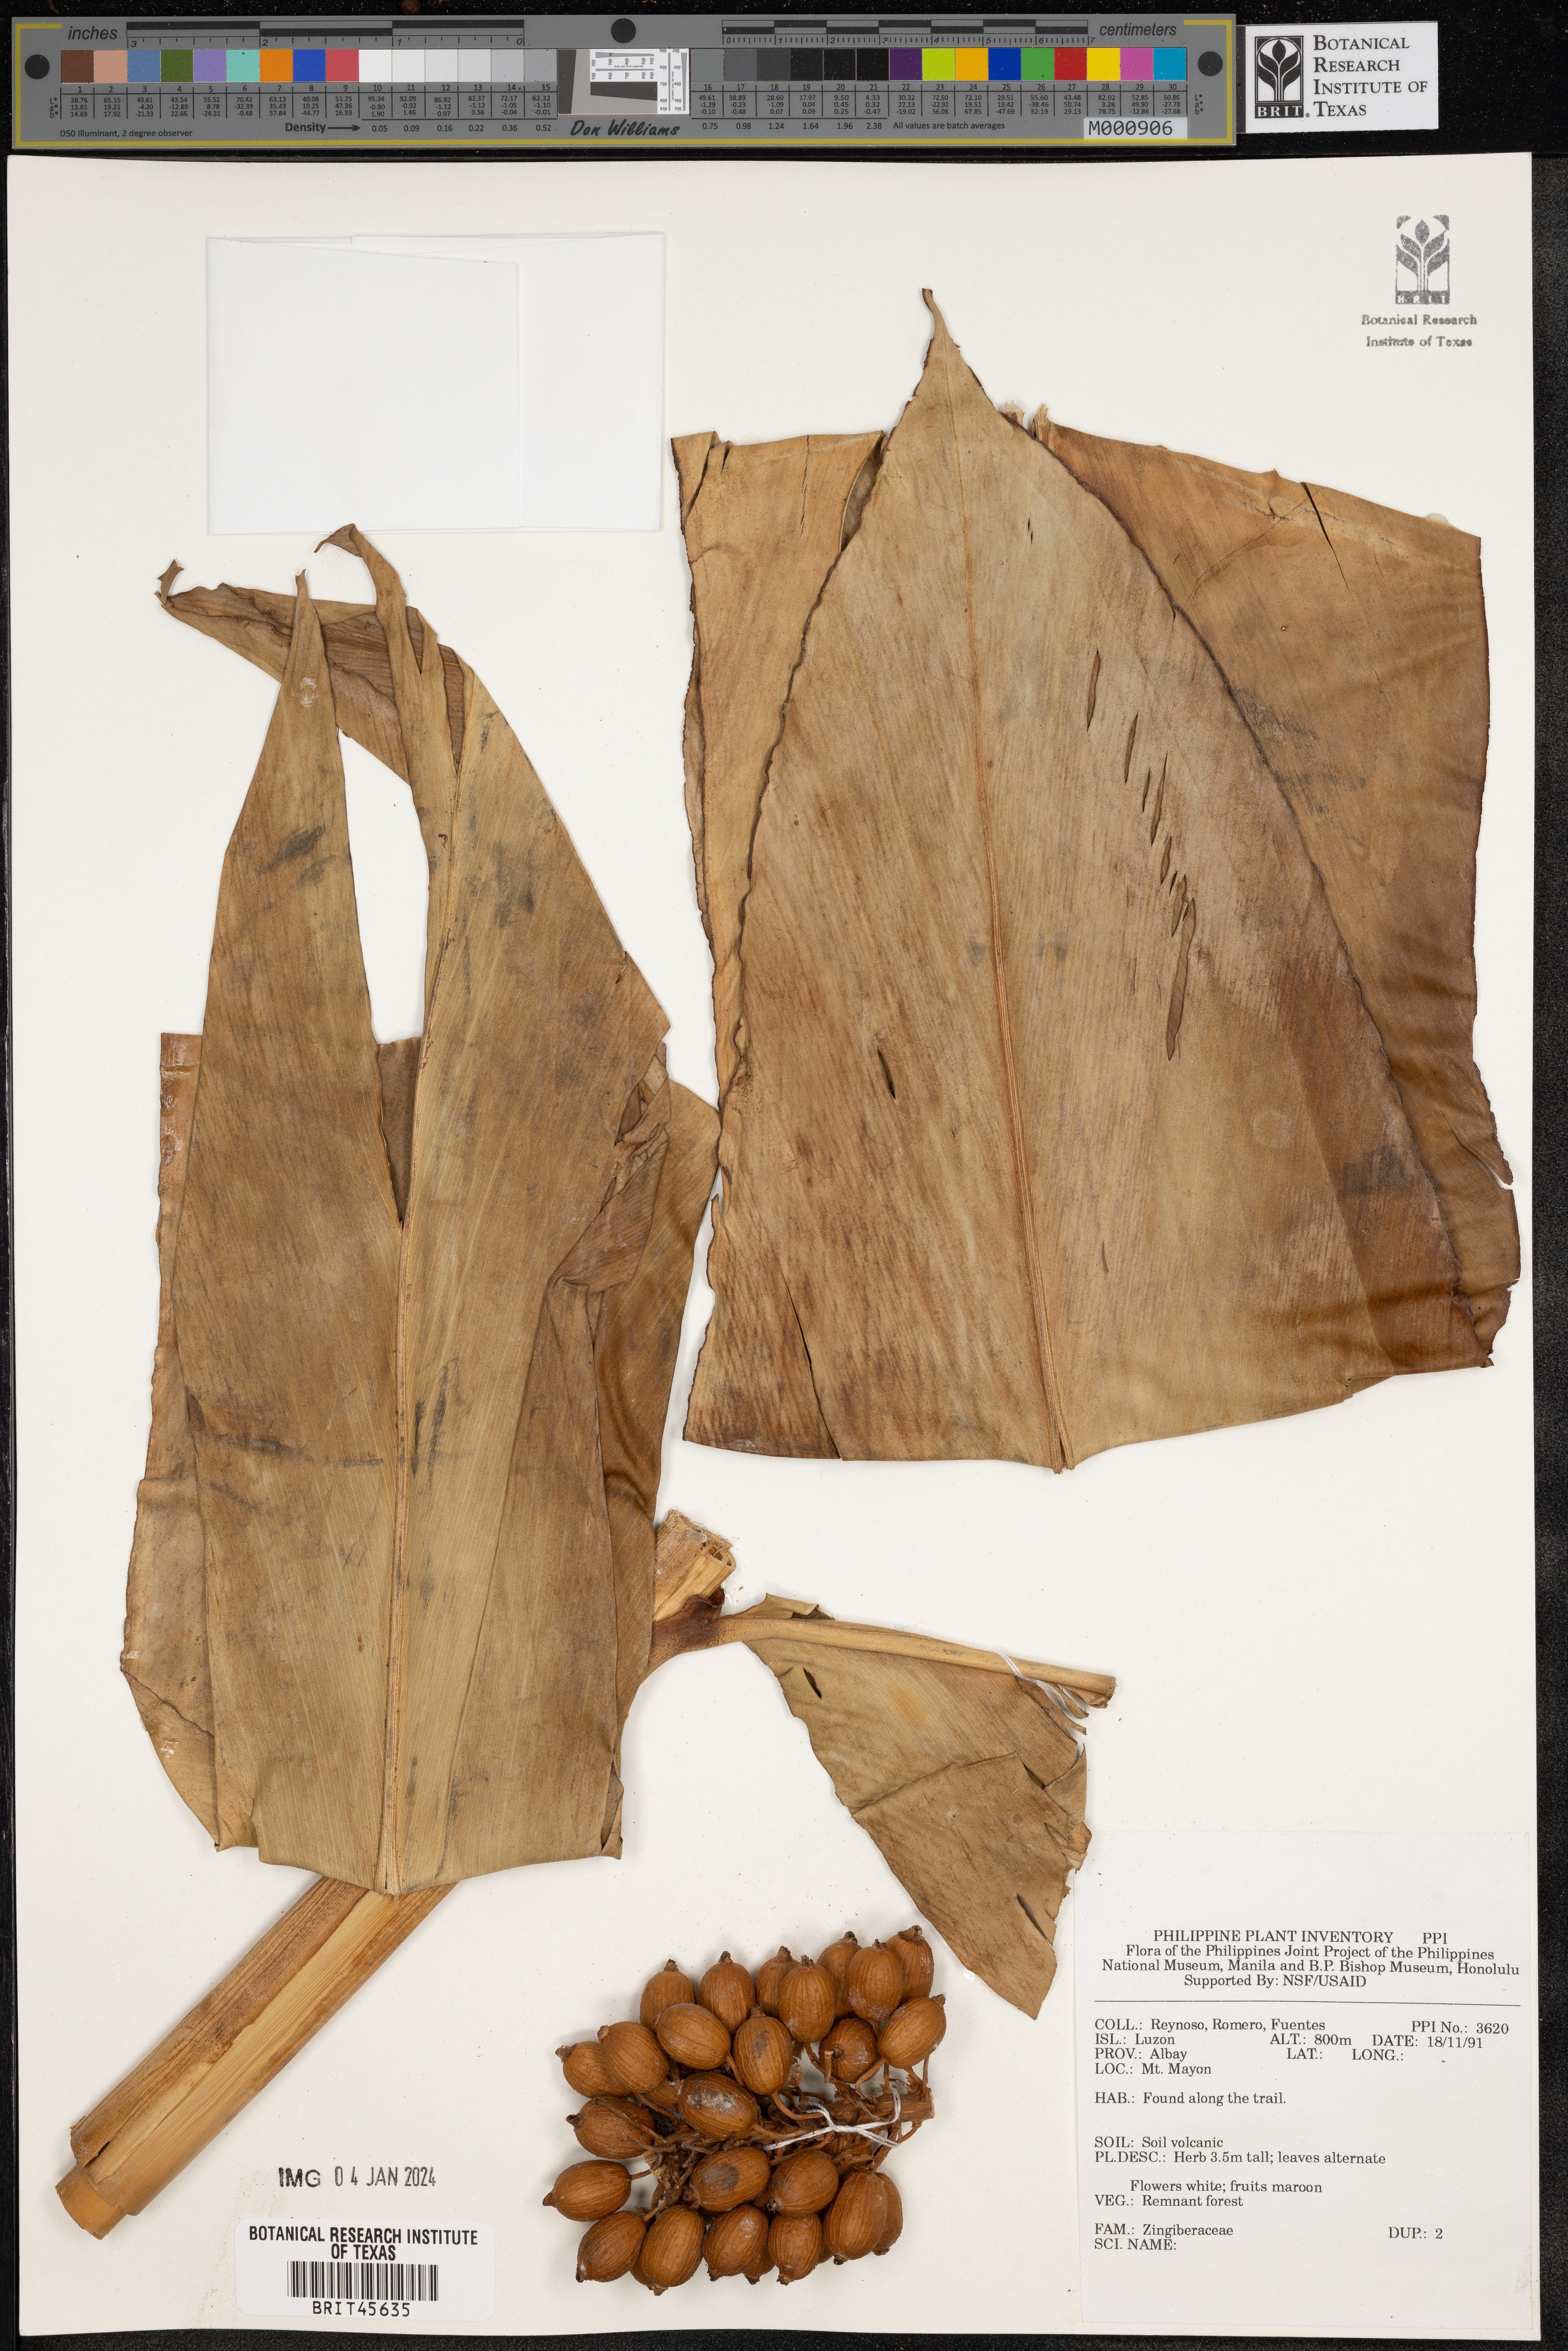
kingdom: Plantae
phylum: Tracheophyta
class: Liliopsida
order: Zingiberales
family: Zingiberaceae
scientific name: Zingiberaceae
